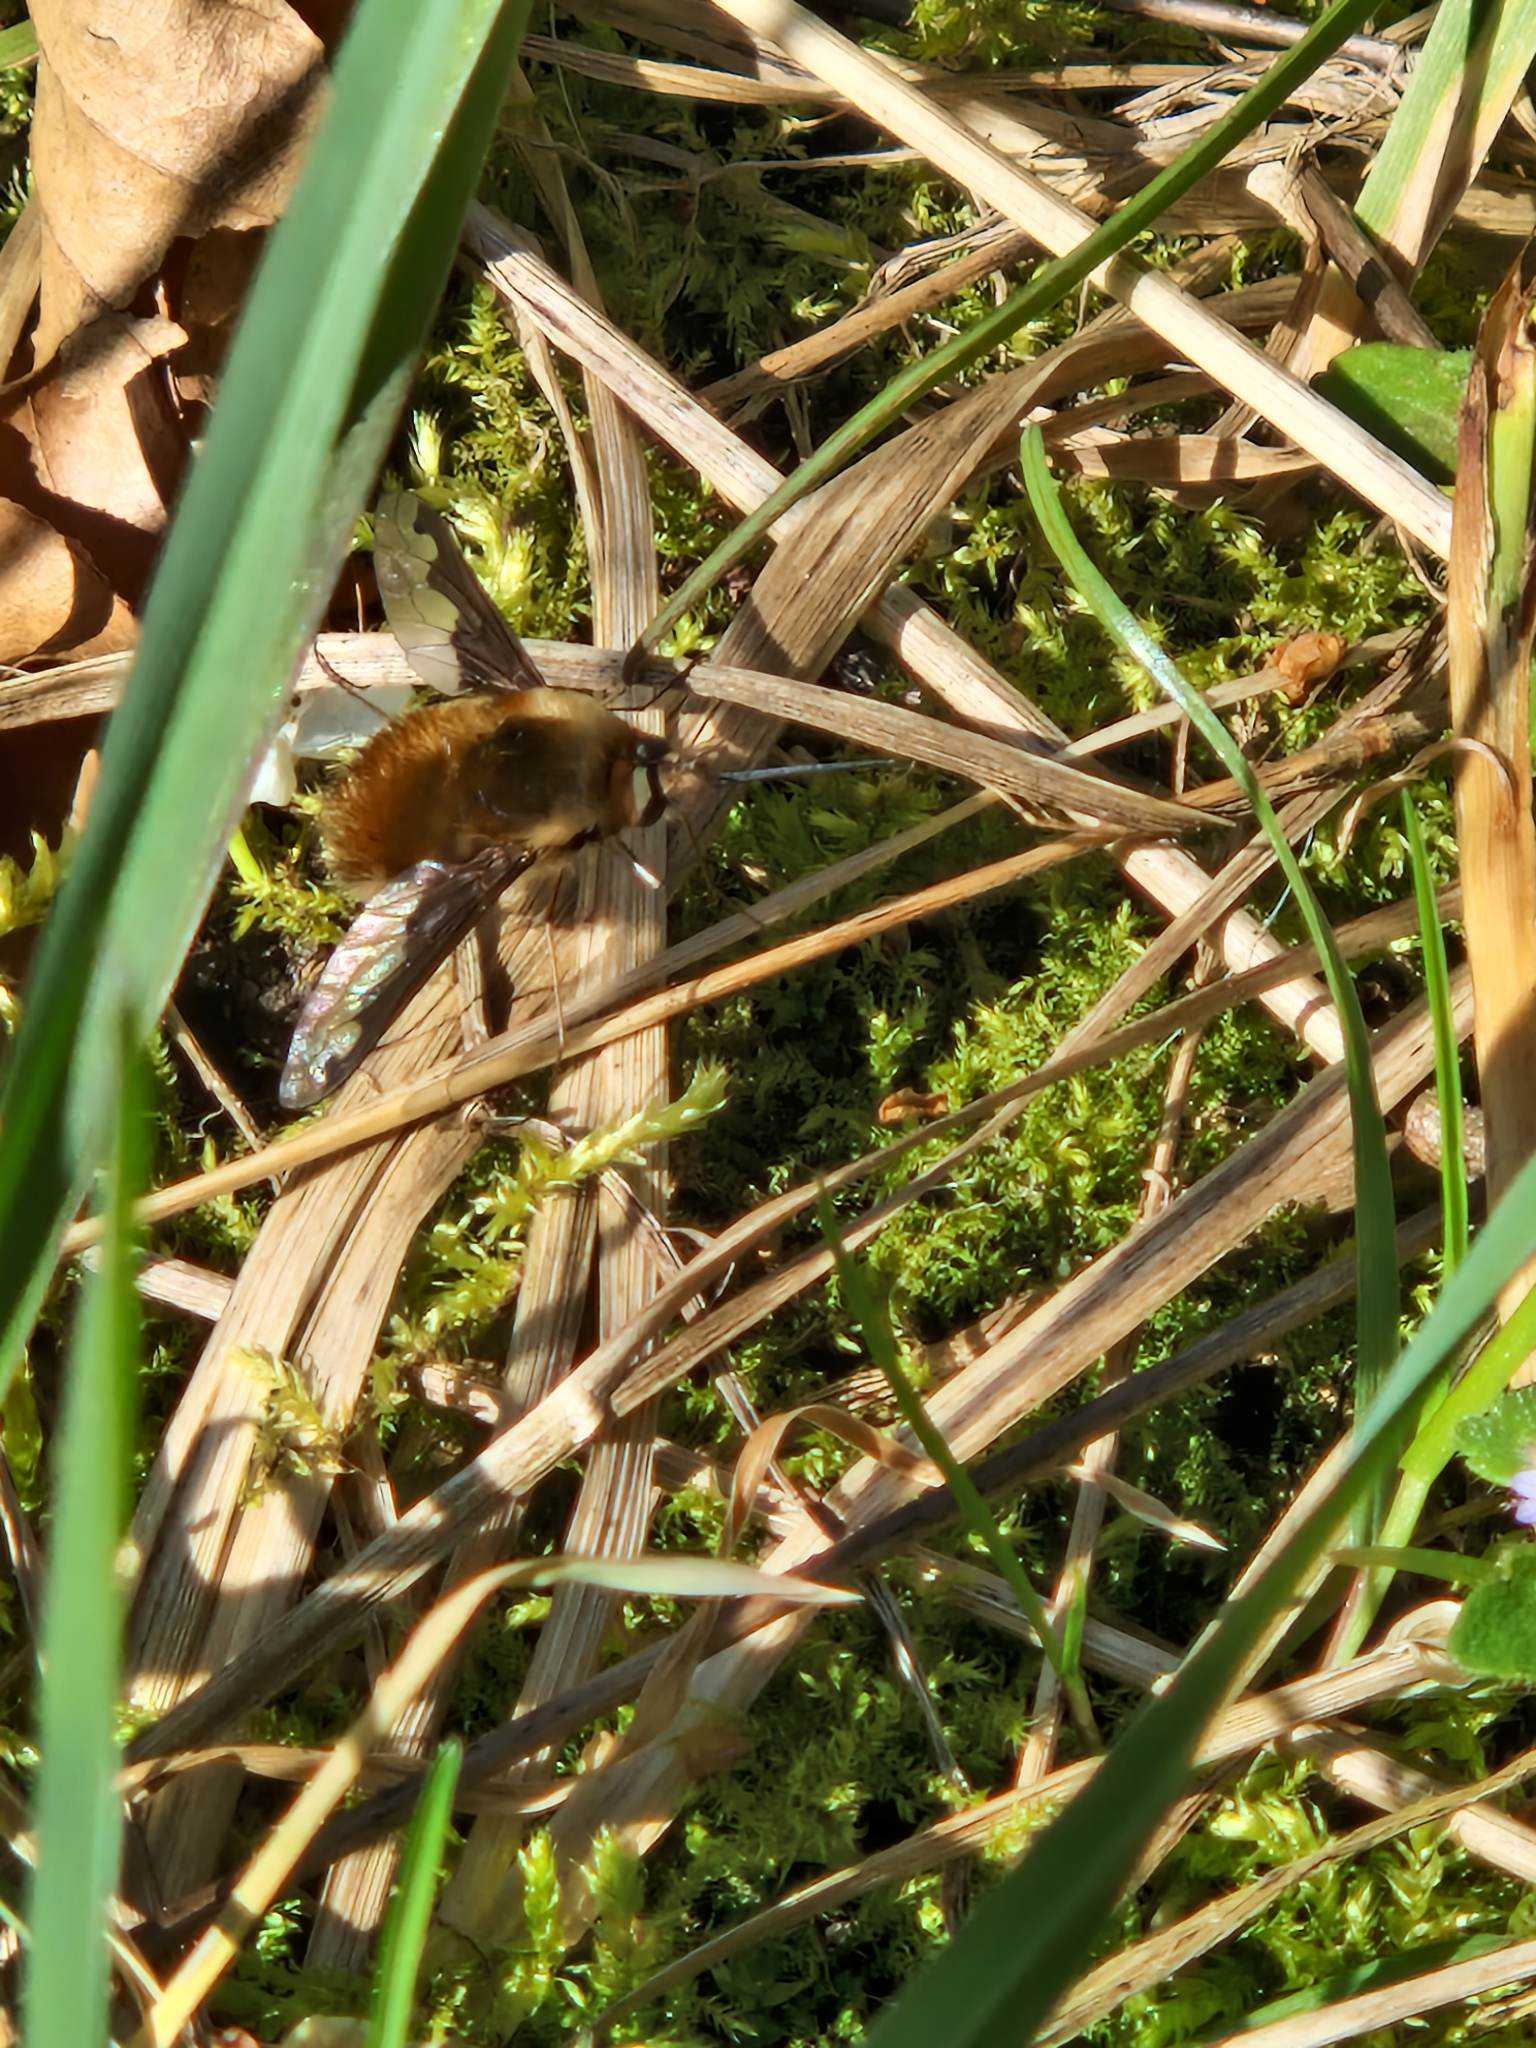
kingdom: Animalia
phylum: Arthropoda
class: Insecta
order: Diptera
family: Bombyliidae
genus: Bombylius
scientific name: Bombylius major
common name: Stor humleflue
